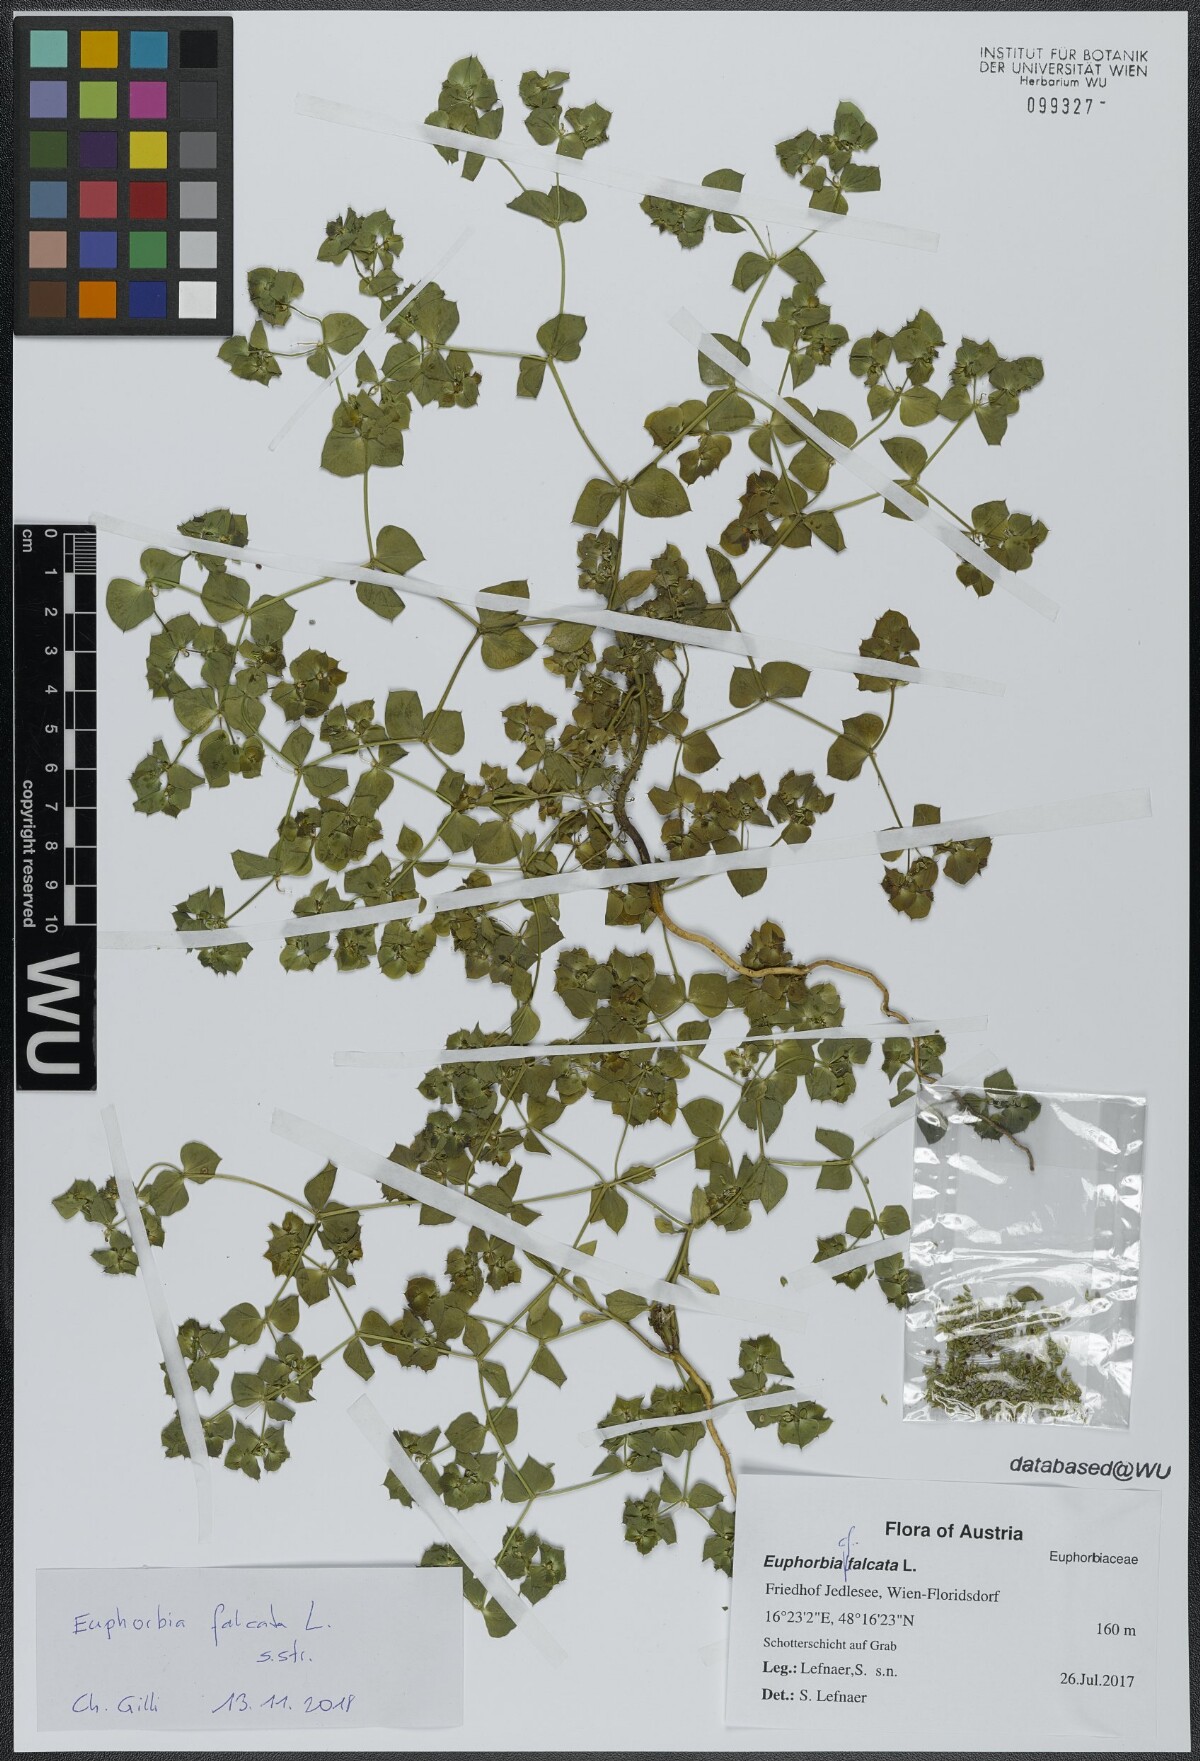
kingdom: Plantae
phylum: Tracheophyta
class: Magnoliopsida
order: Malpighiales
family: Euphorbiaceae
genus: Euphorbia
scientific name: Euphorbia falcata
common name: Sickle spurge
